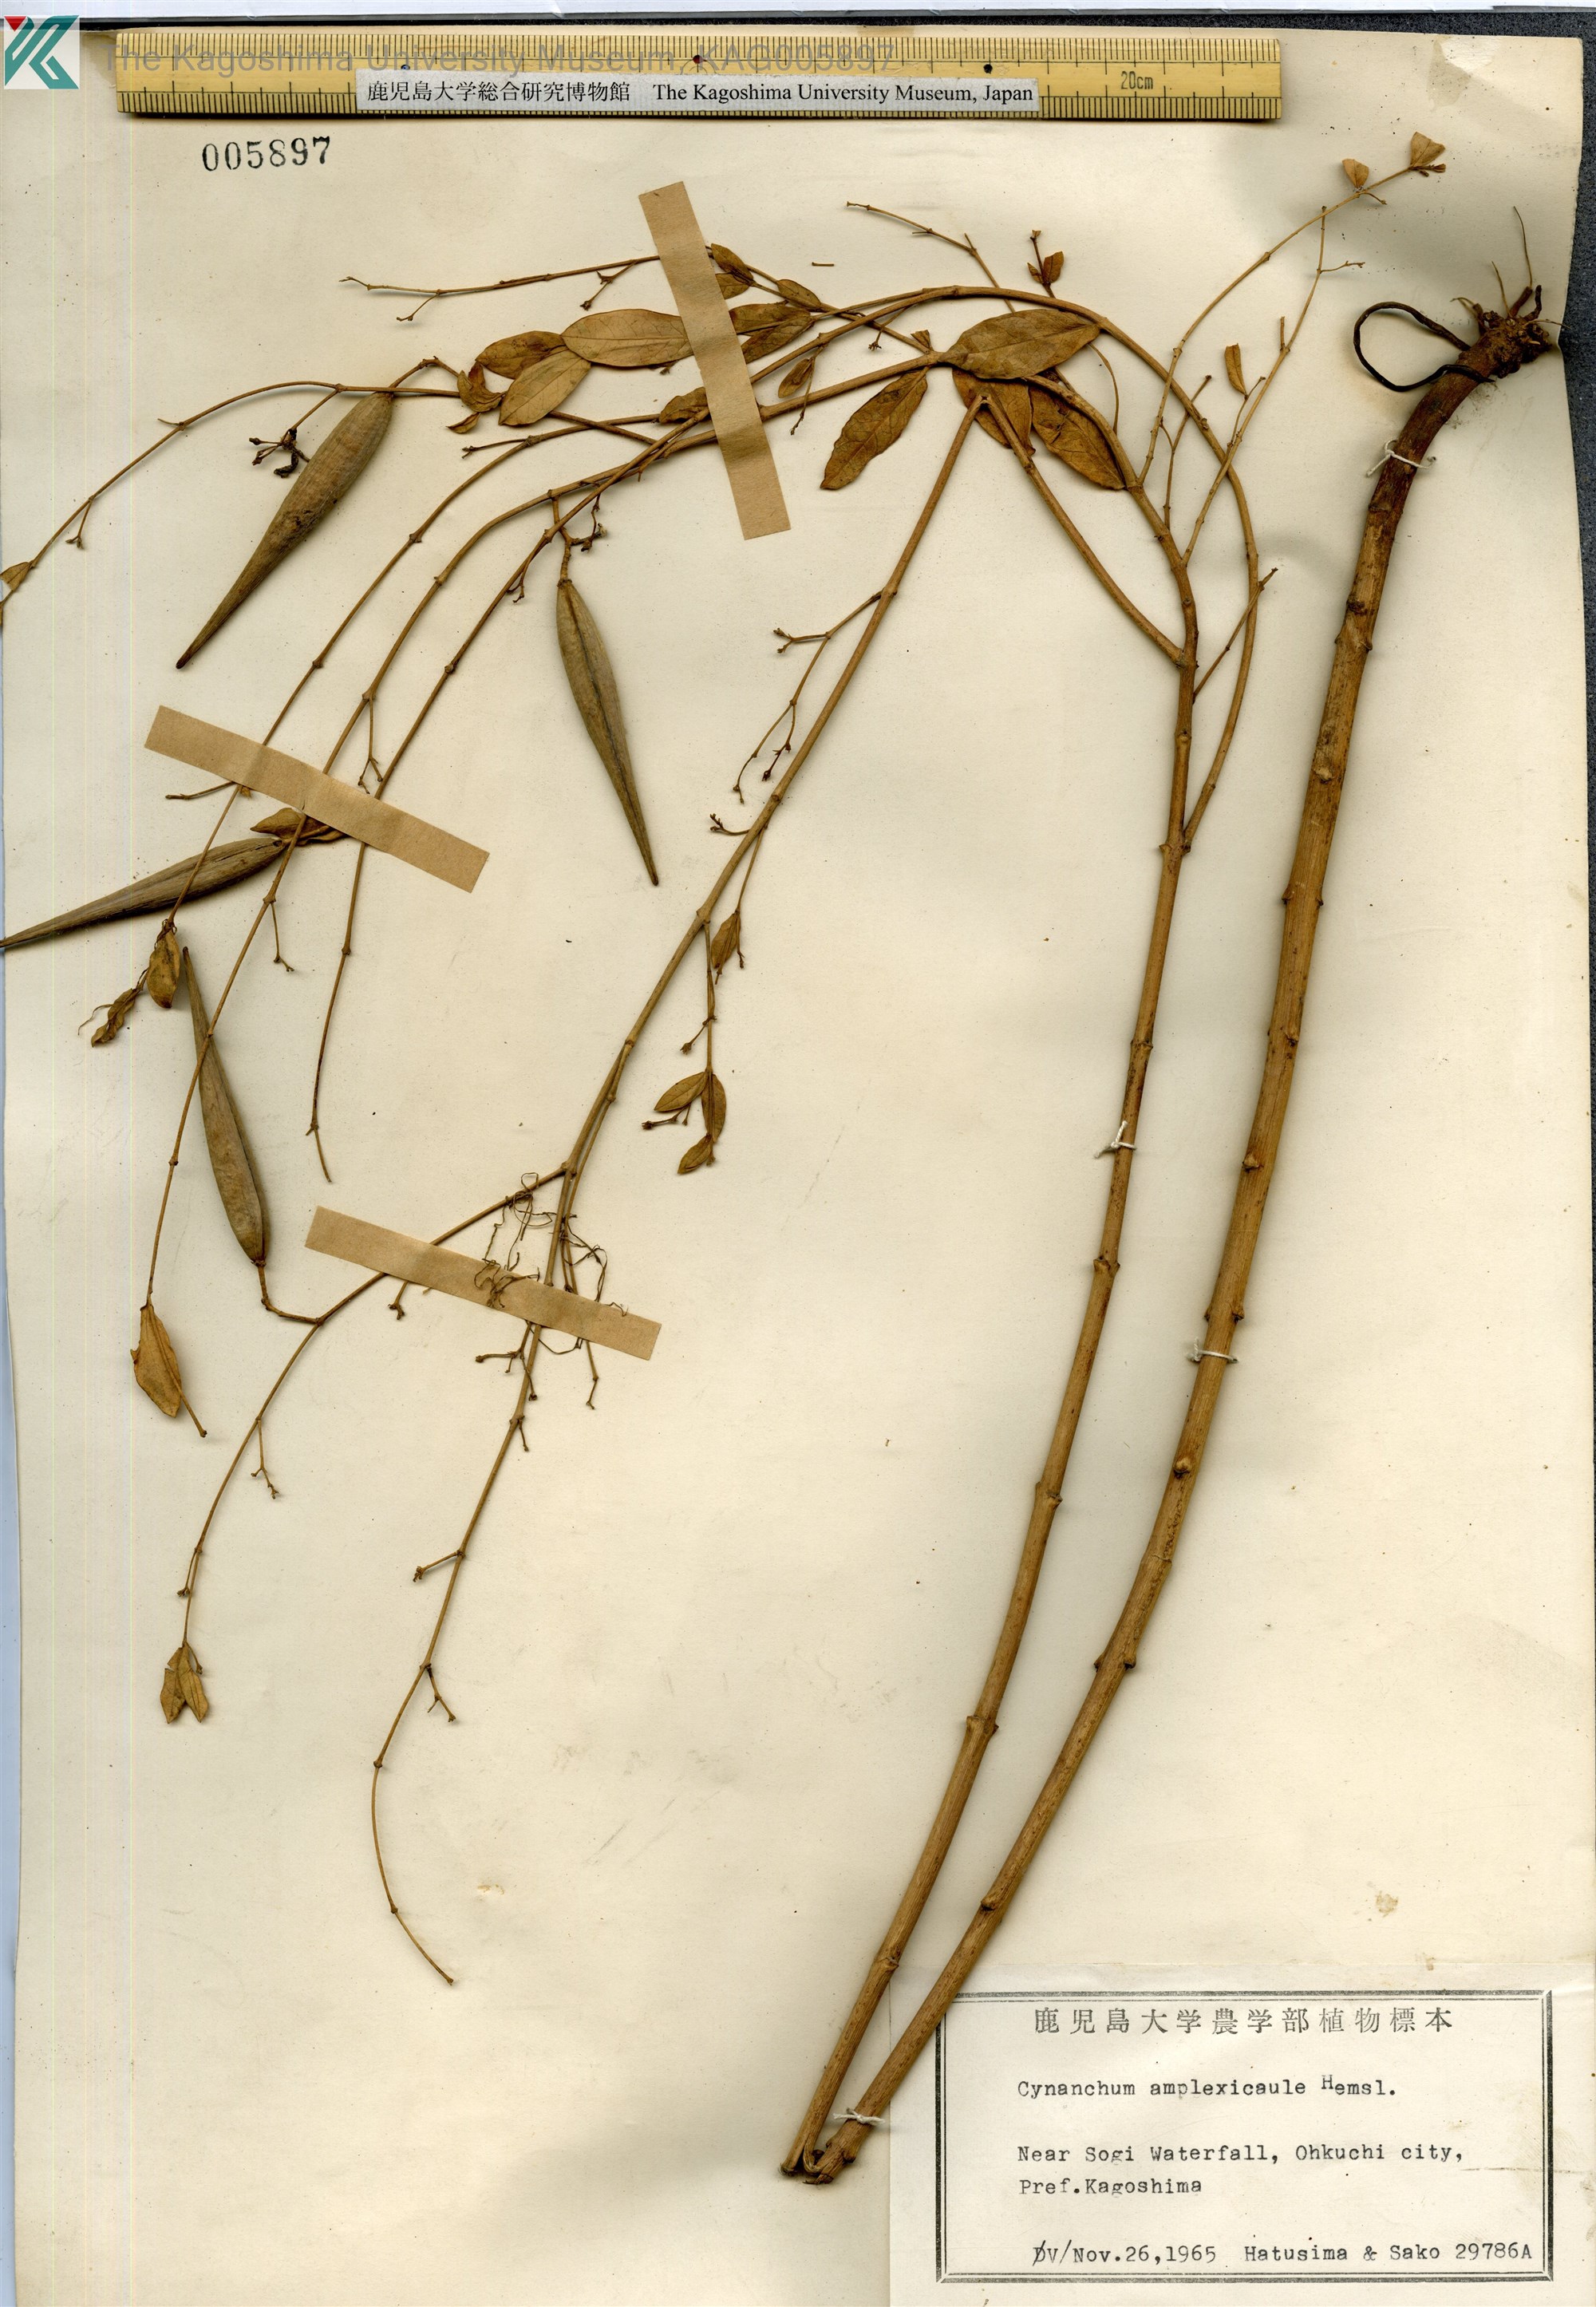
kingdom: Plantae
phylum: Tracheophyta
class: Magnoliopsida
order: Gentianales
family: Apocynaceae
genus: Vincetoxicum
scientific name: Vincetoxicum amplexicaule
